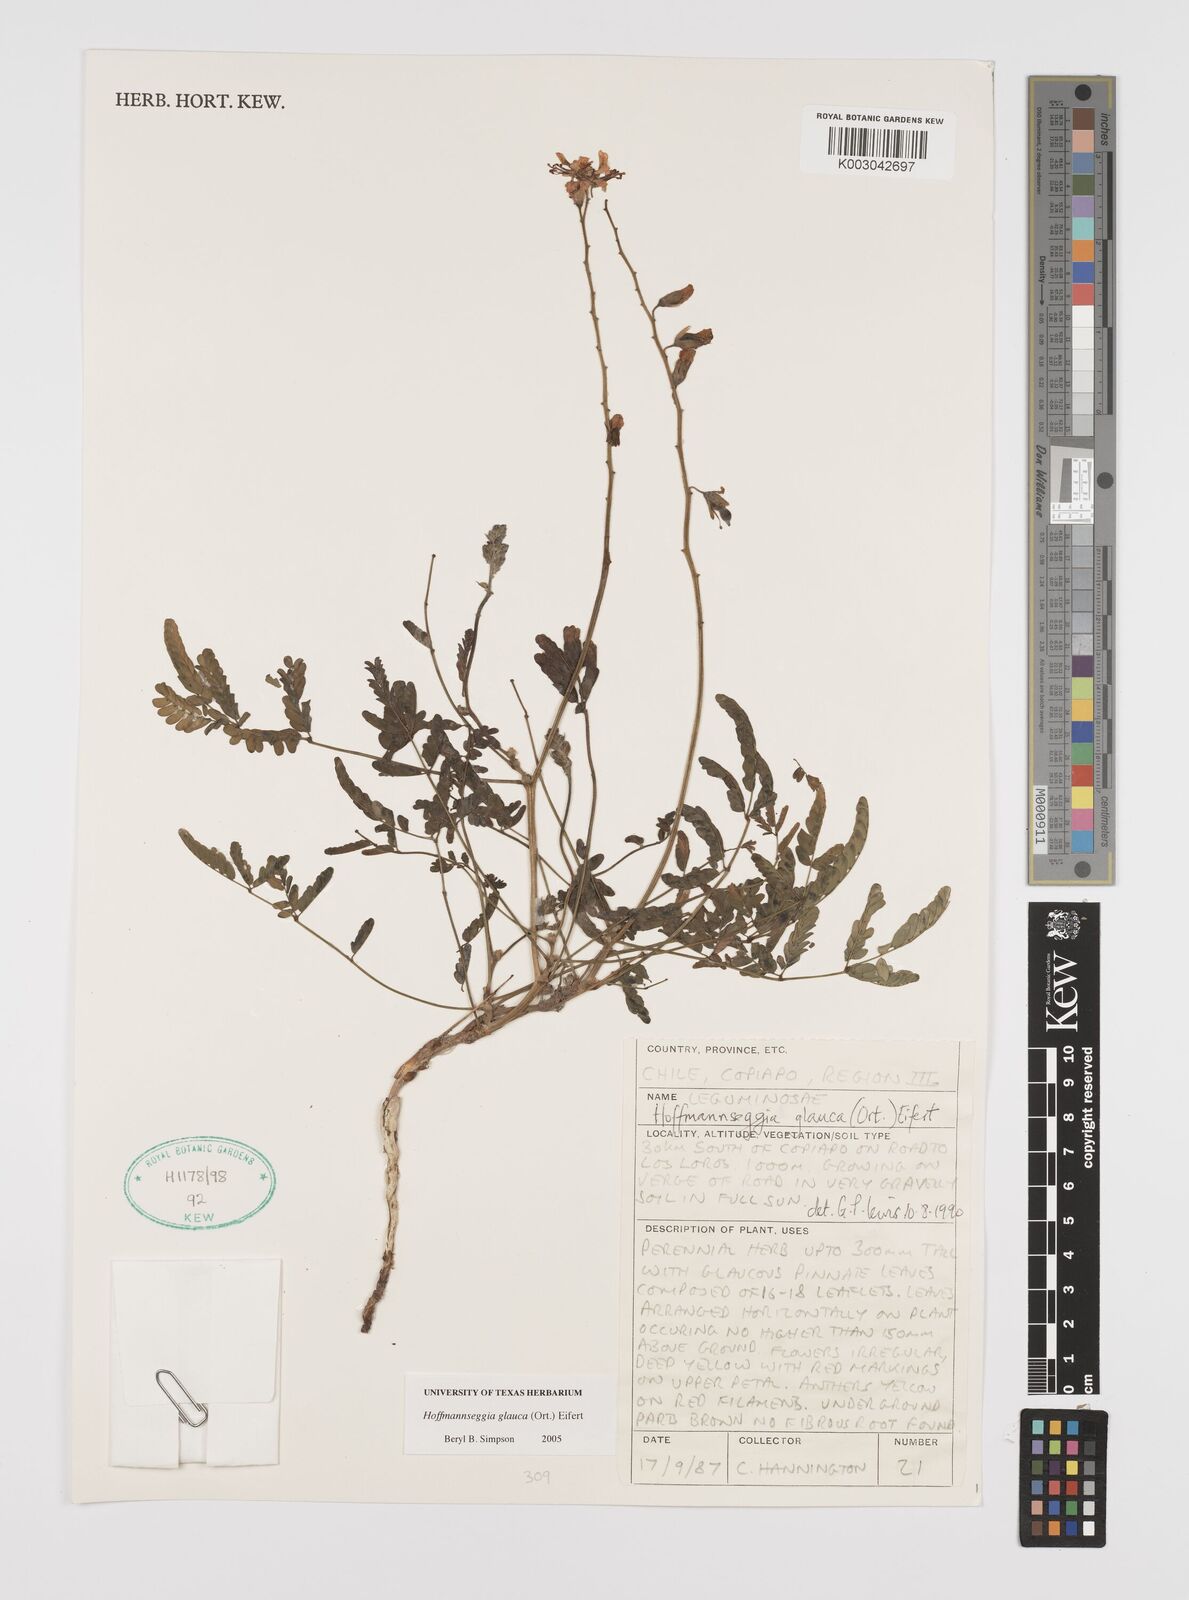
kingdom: Plantae
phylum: Tracheophyta
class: Magnoliopsida
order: Fabales
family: Fabaceae
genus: Hoffmannseggia
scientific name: Hoffmannseggia glauca
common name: Pignut
